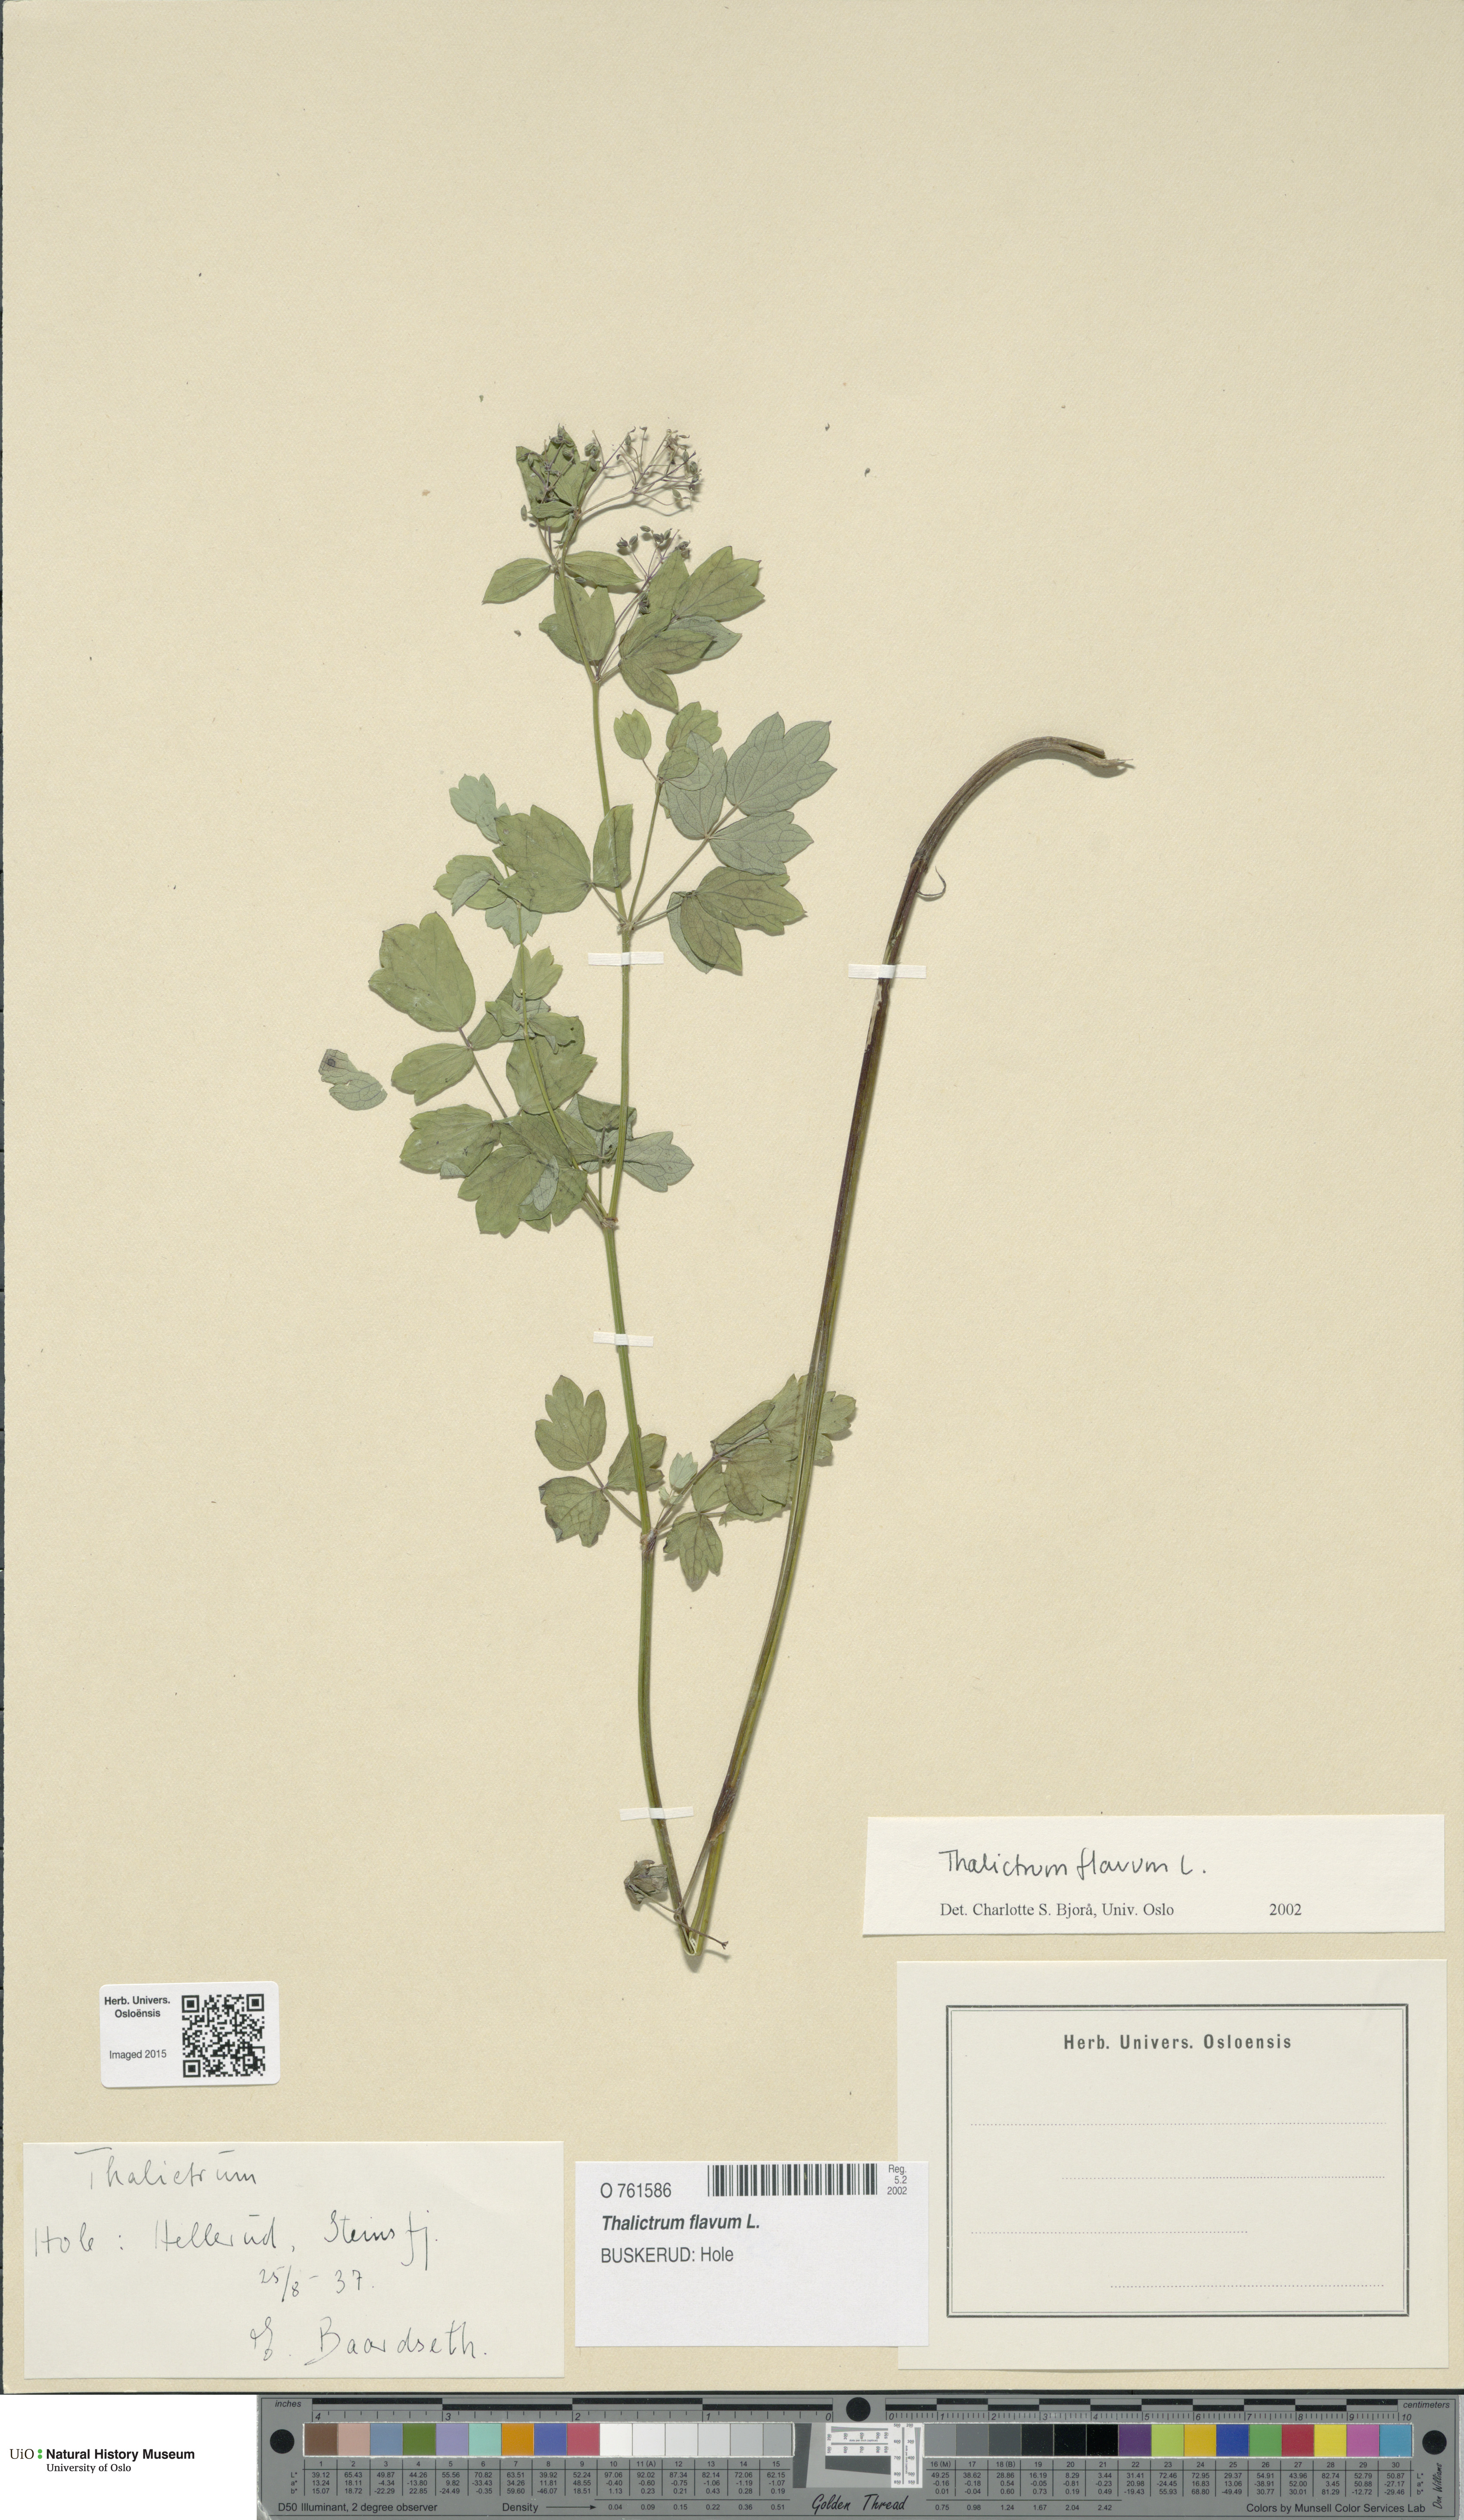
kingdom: Plantae
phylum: Tracheophyta
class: Magnoliopsida
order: Ranunculales
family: Ranunculaceae
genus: Thalictrum
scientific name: Thalictrum flavum
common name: Common meadow-rue
